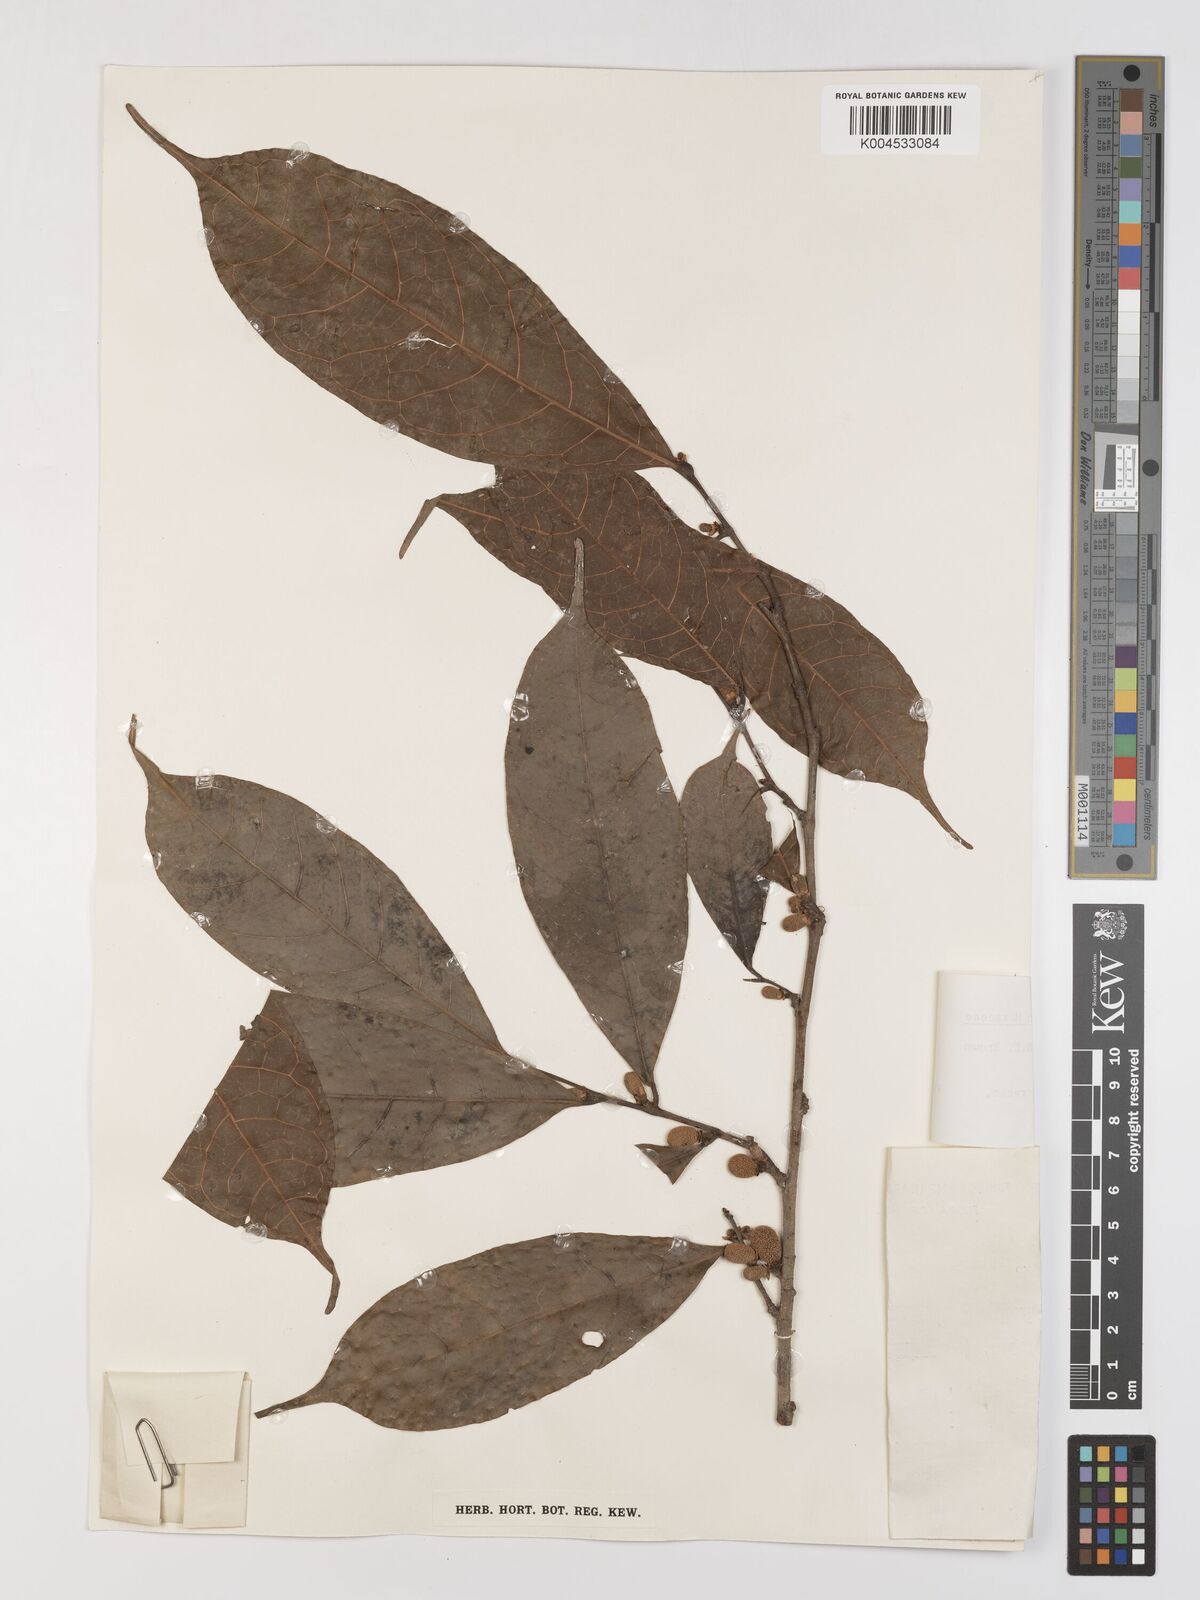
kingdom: Plantae
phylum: Tracheophyta
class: Magnoliopsida
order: Rosales
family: Moraceae
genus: Treculia
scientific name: Treculia obovoidea
